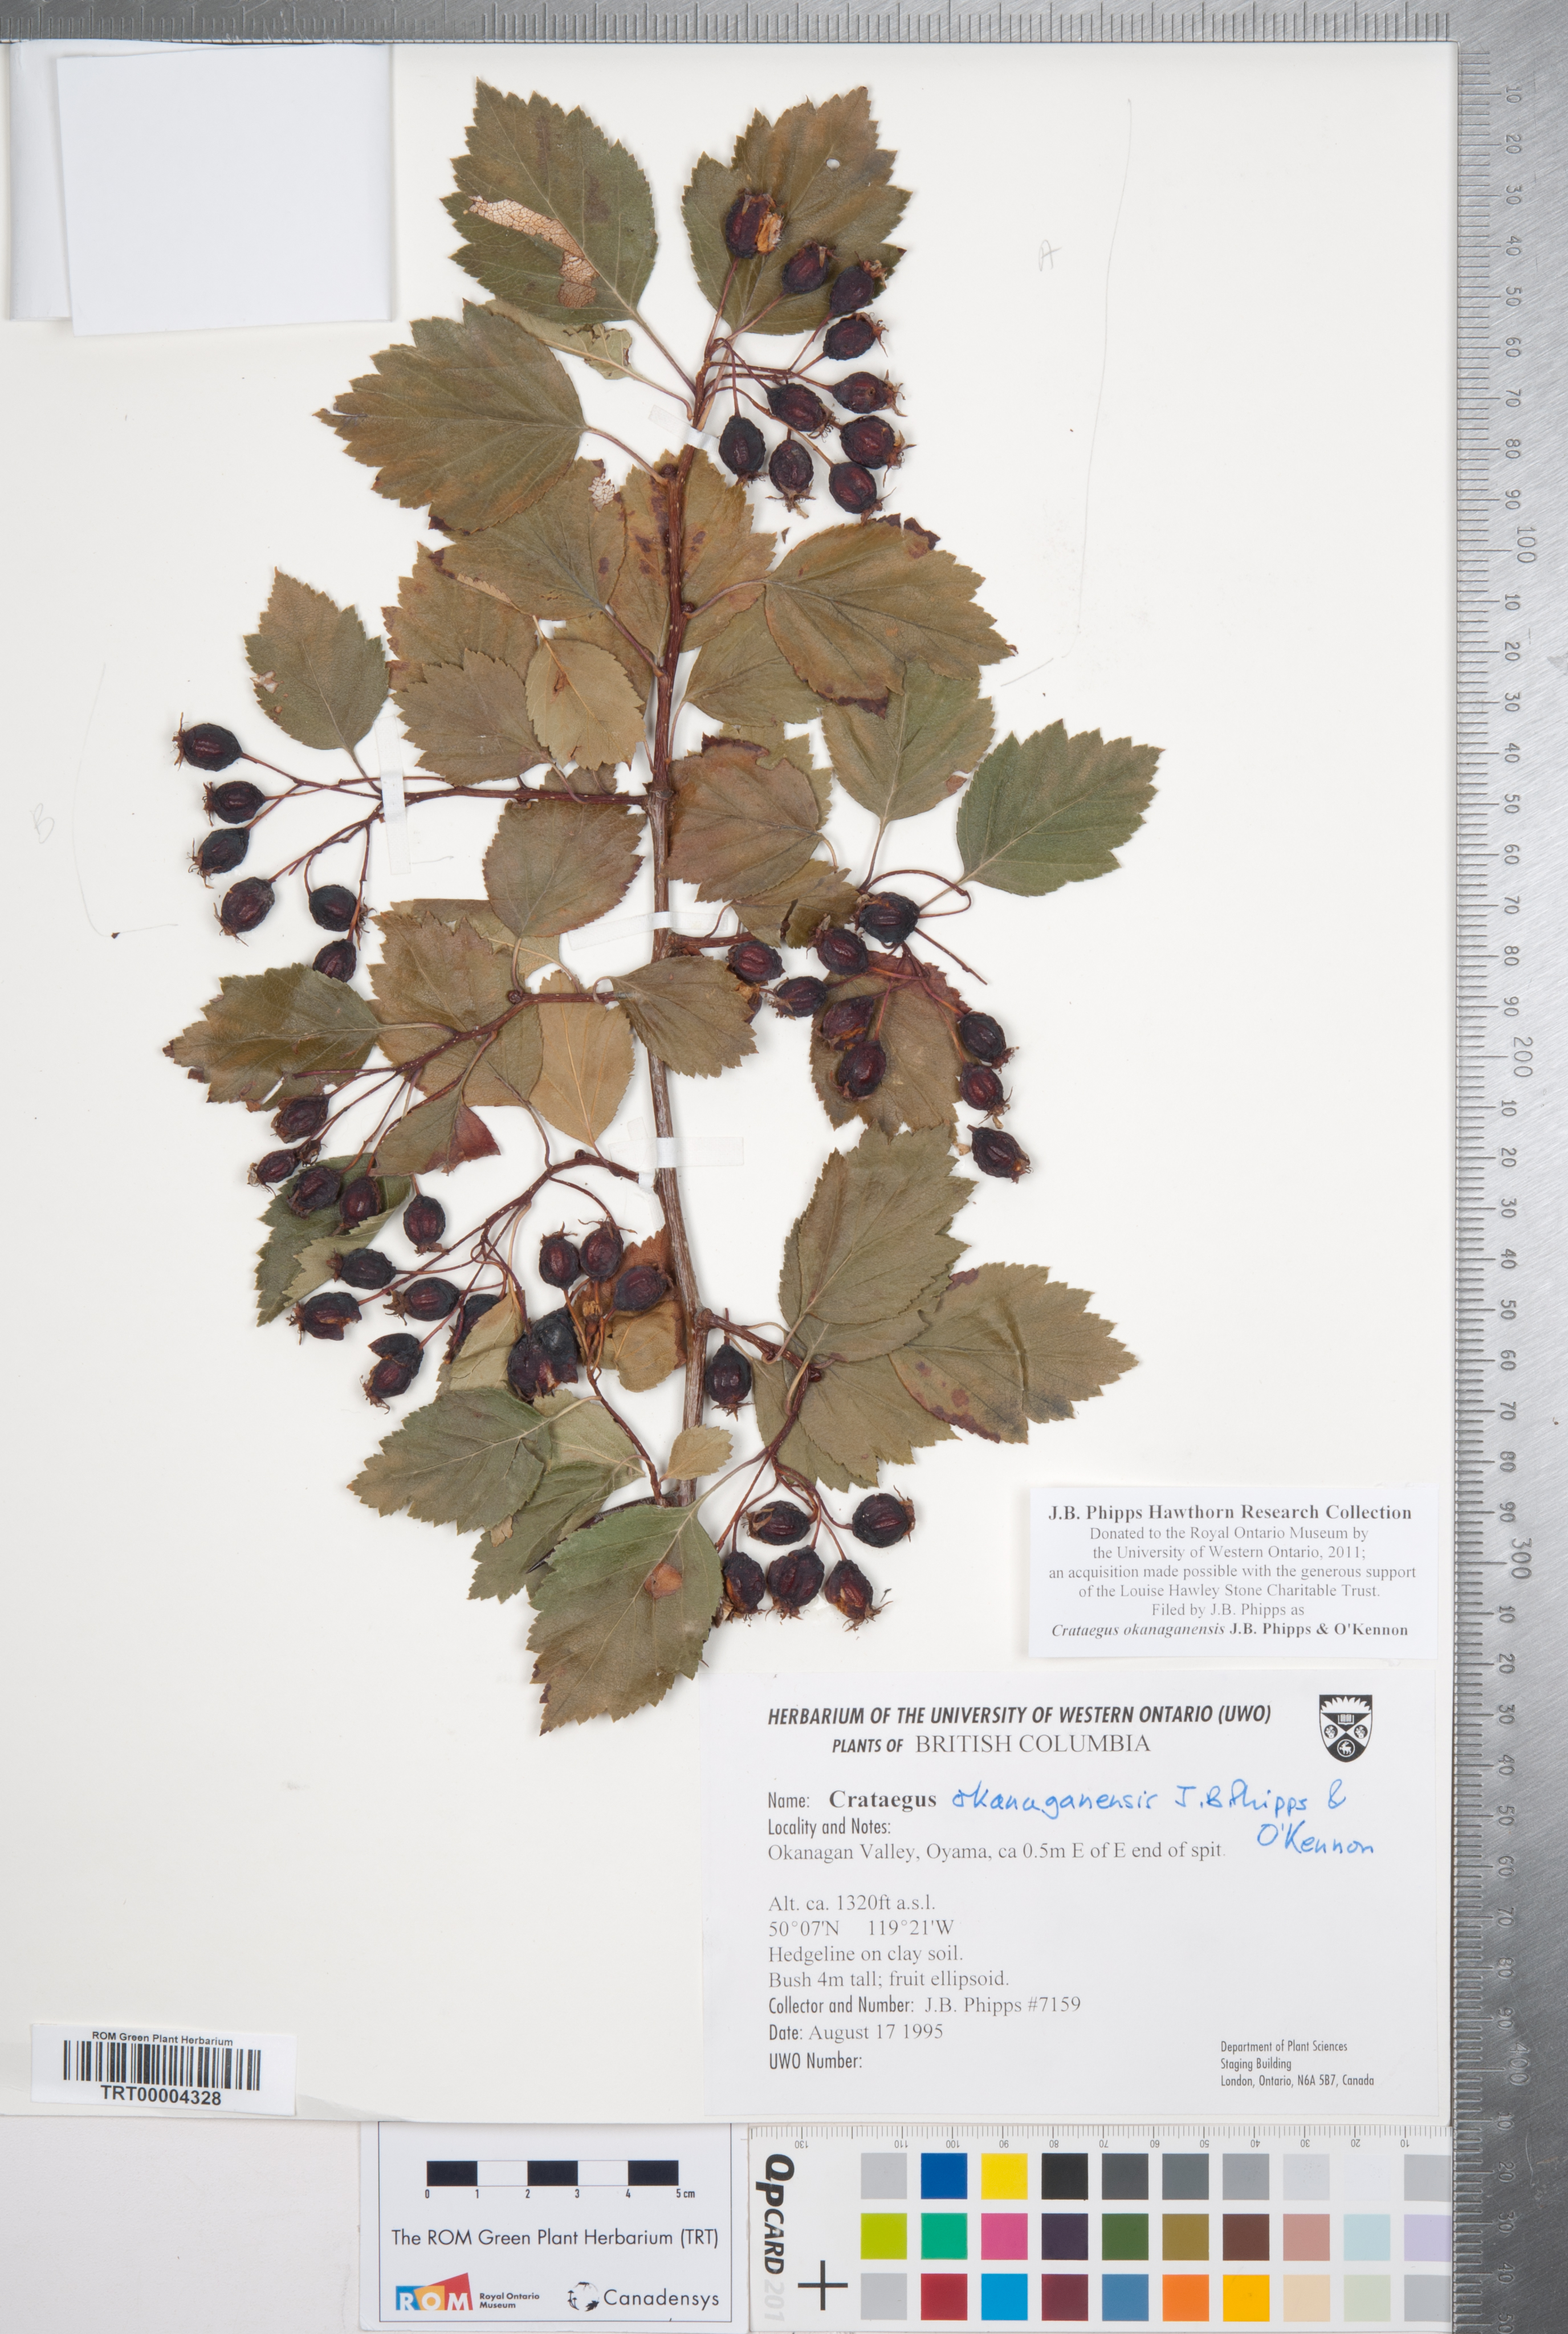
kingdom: Plantae
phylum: Tracheophyta
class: Magnoliopsida
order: Rosales
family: Rosaceae
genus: Crataegus
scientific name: Crataegus okanaganensis
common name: Okanagan valley hawthorn
